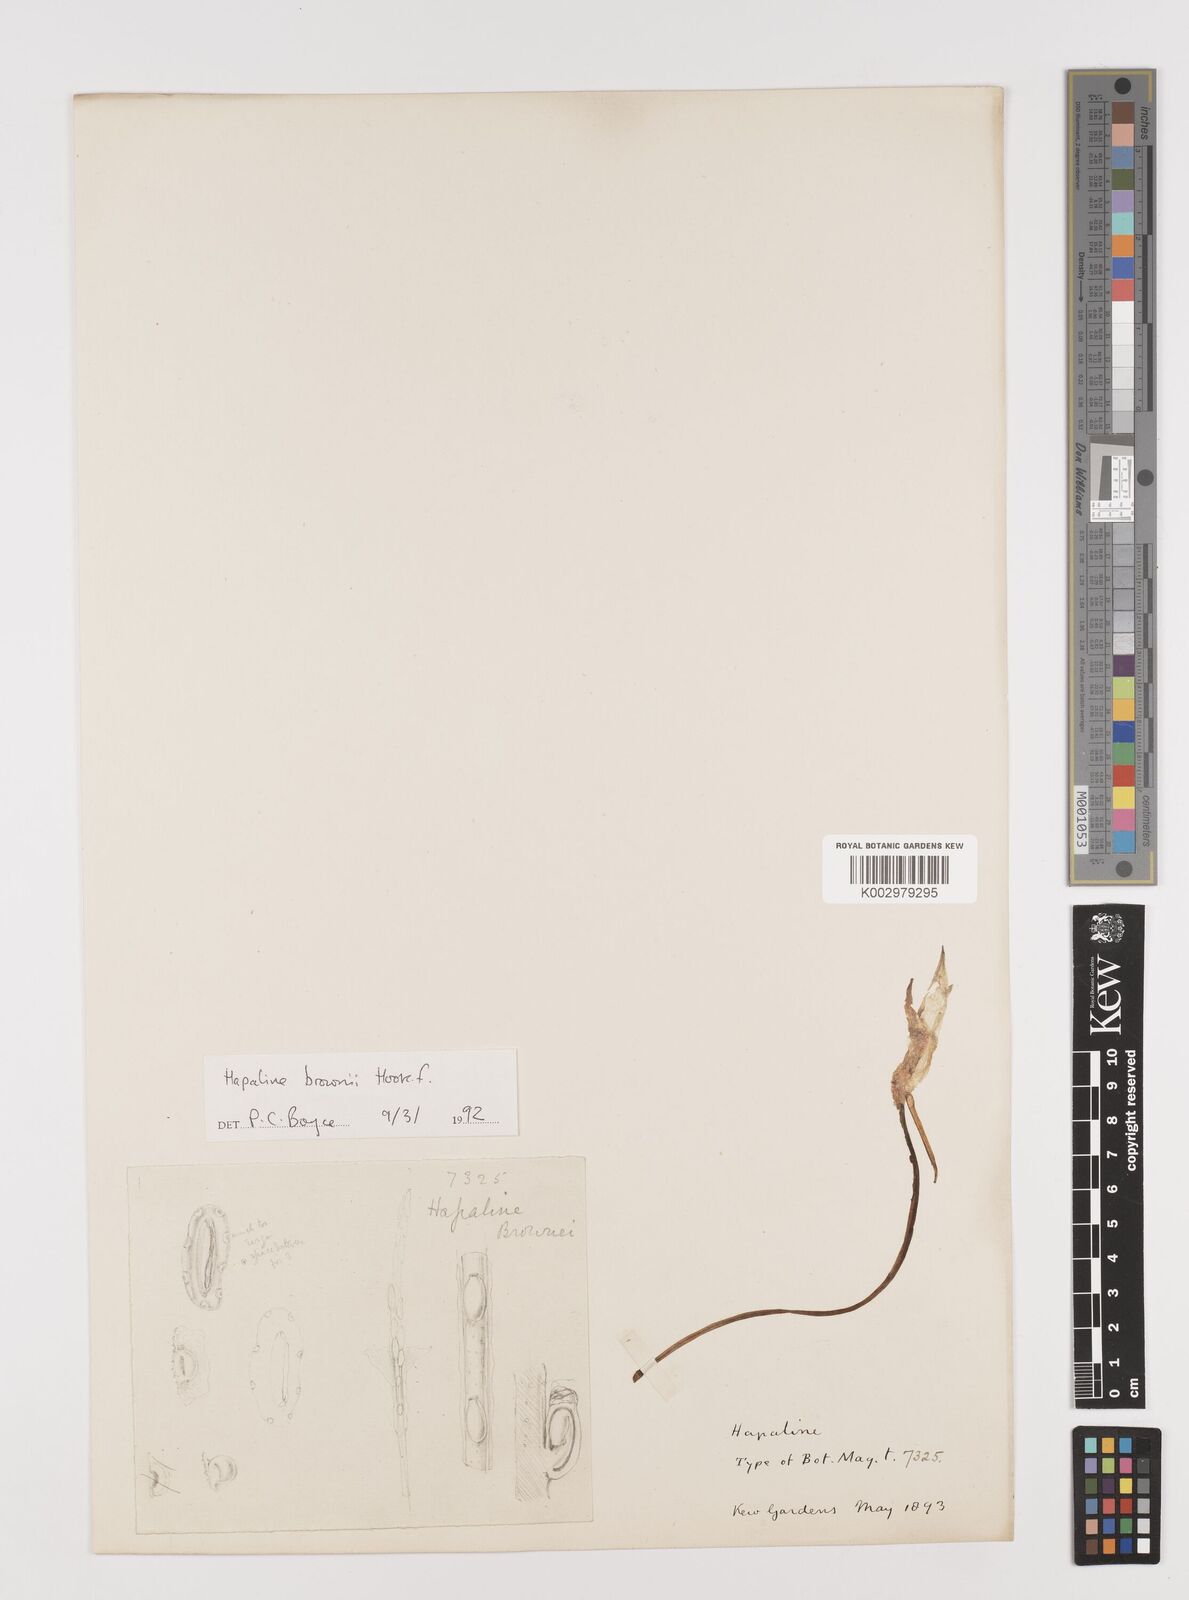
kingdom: Plantae
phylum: Tracheophyta
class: Liliopsida
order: Alismatales
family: Araceae
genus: Hapaline
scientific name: Hapaline brownii
